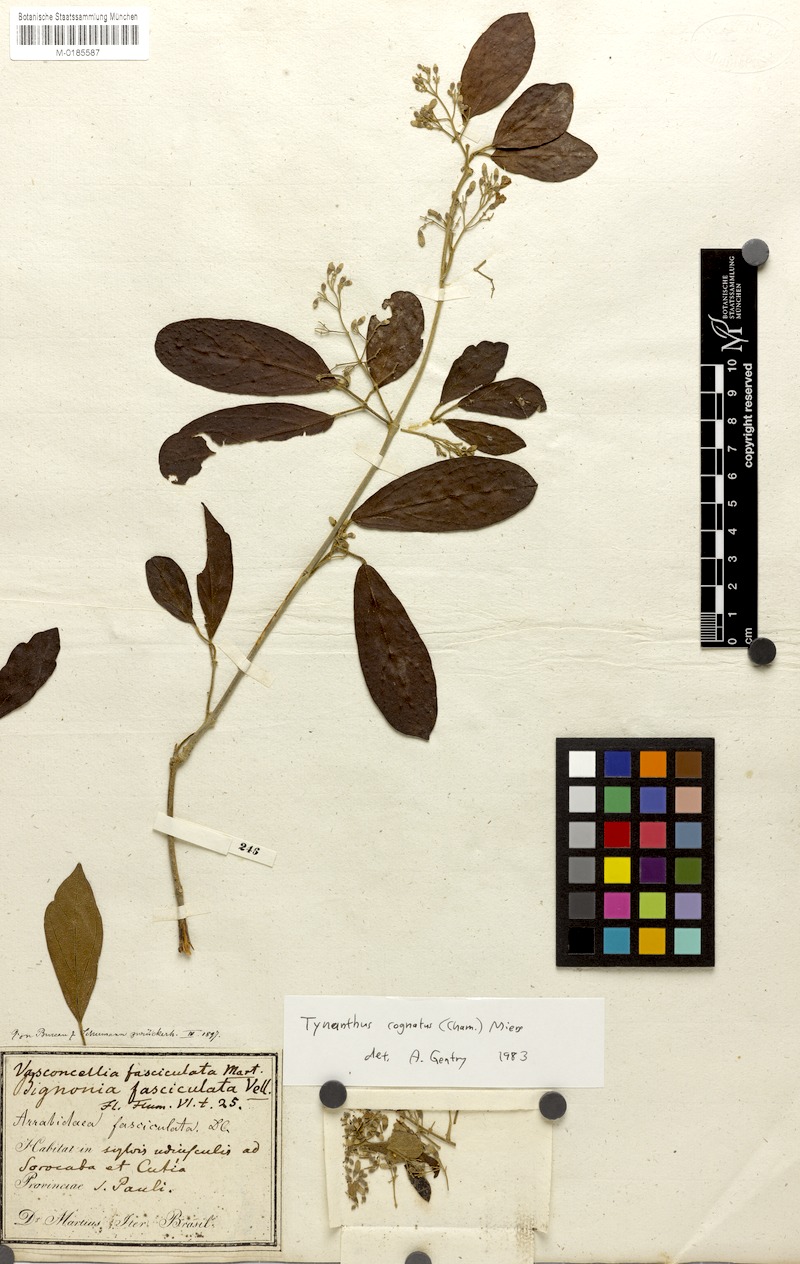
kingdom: Plantae
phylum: Tracheophyta
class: Magnoliopsida
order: Lamiales
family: Bignoniaceae
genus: Tynanthus
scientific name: Tynanthus cognatus
